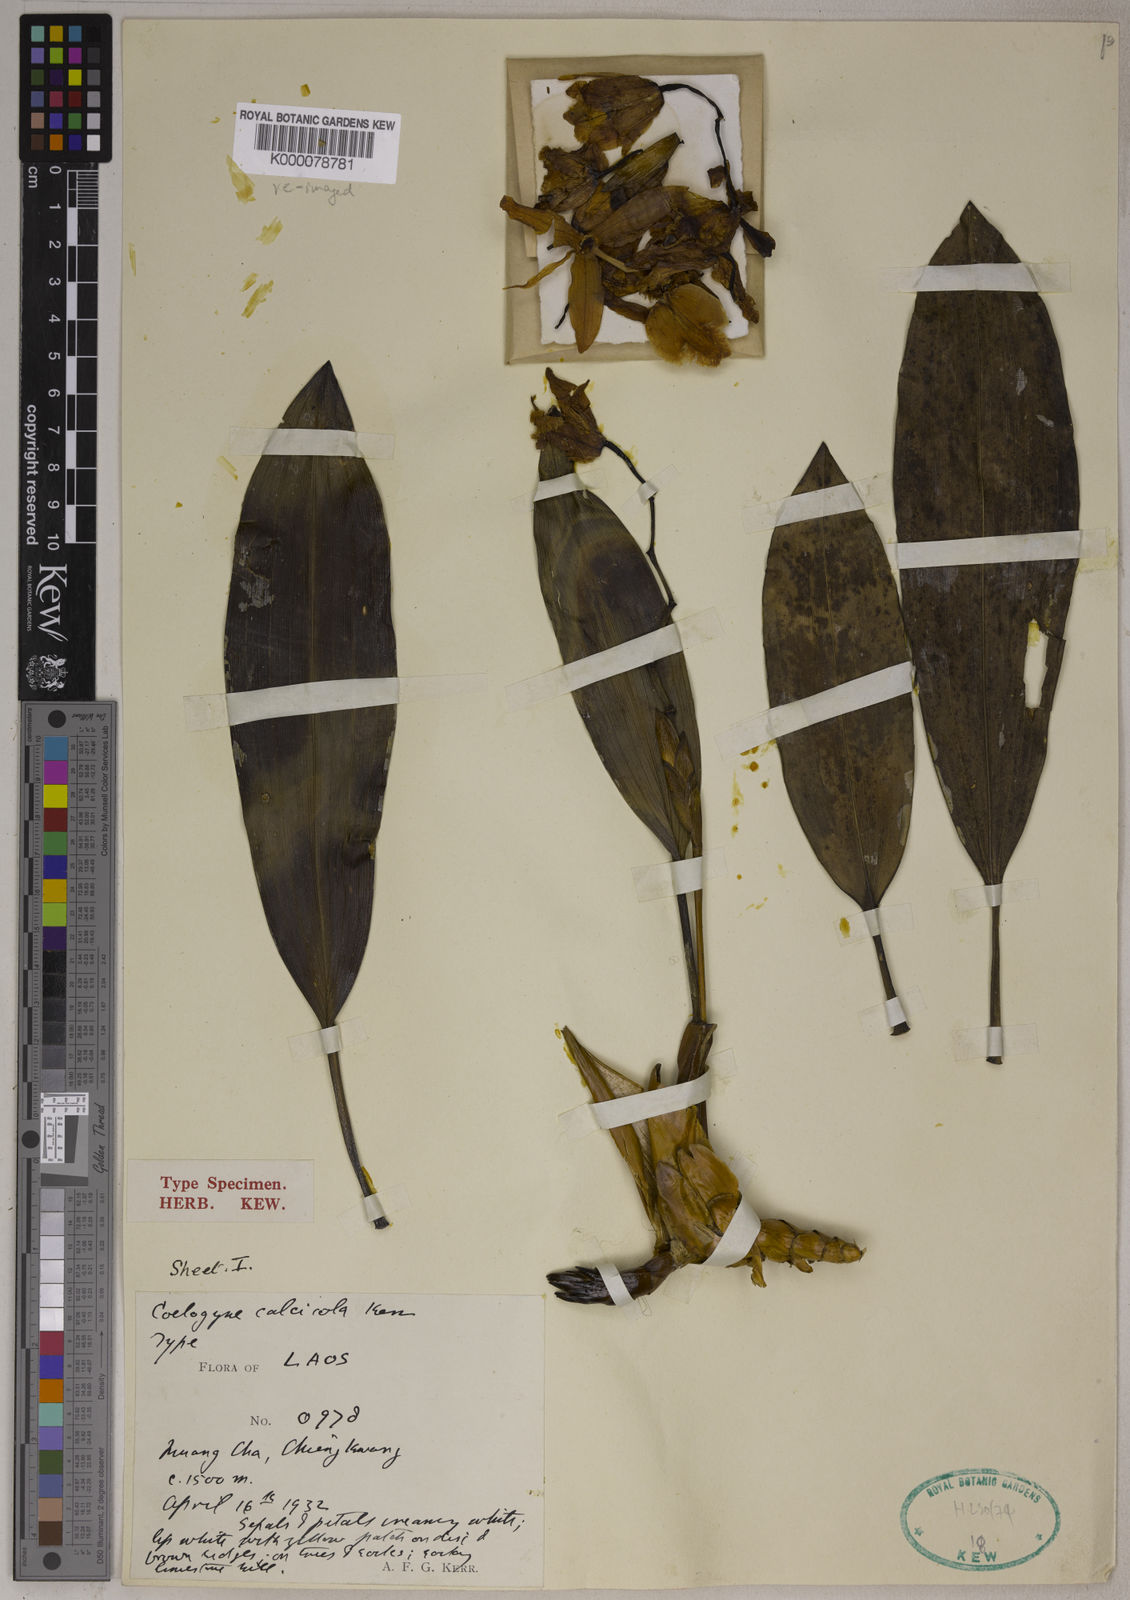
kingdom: Plantae
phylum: Tracheophyta
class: Liliopsida
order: Asparagales
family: Orchidaceae
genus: Coelogyne
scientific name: Coelogyne calcicola
